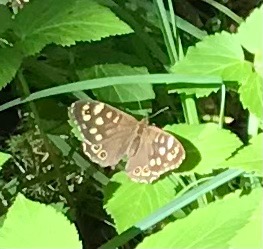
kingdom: Animalia
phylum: Arthropoda
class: Insecta
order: Lepidoptera
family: Nymphalidae
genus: Pararge
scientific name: Pararge aegeria
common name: Skovrandøje
